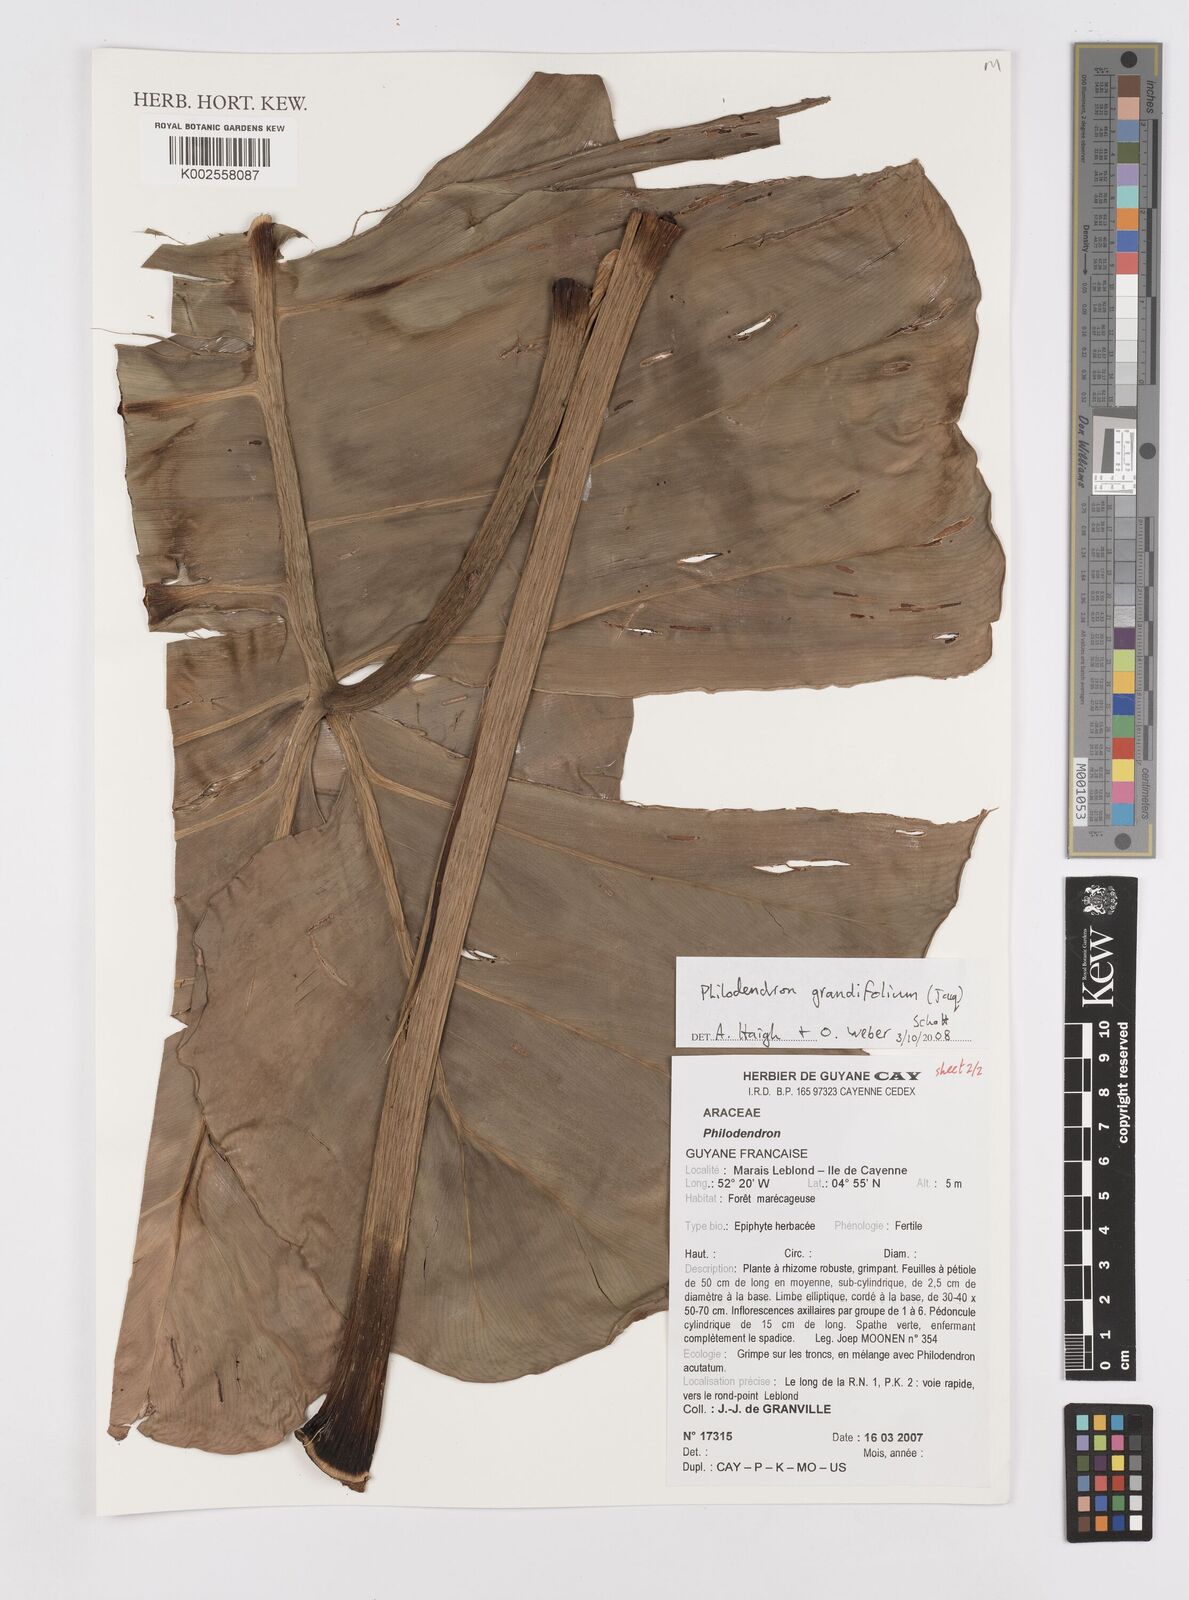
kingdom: Plantae
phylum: Tracheophyta
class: Liliopsida
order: Alismatales
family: Araceae
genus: Philodendron
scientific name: Philodendron grandifolium
